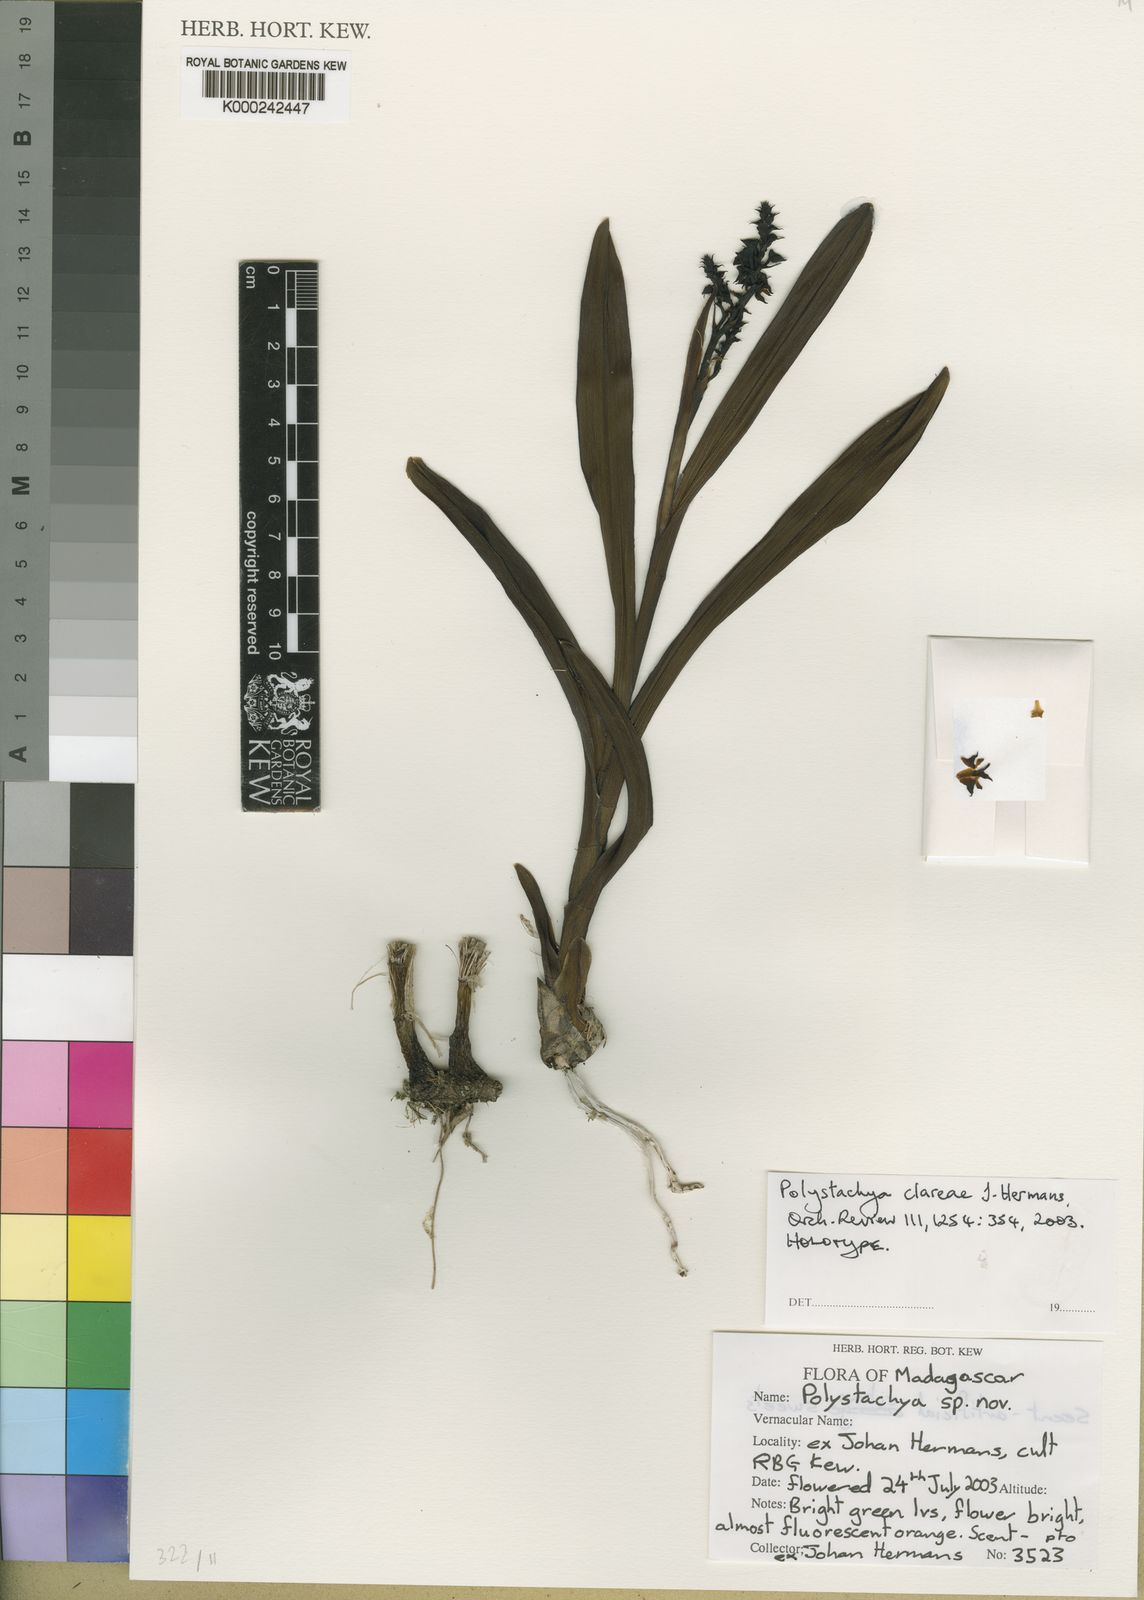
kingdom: Plantae
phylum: Tracheophyta
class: Liliopsida
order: Asparagales
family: Orchidaceae
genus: Polystachya
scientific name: Polystachya clareae
